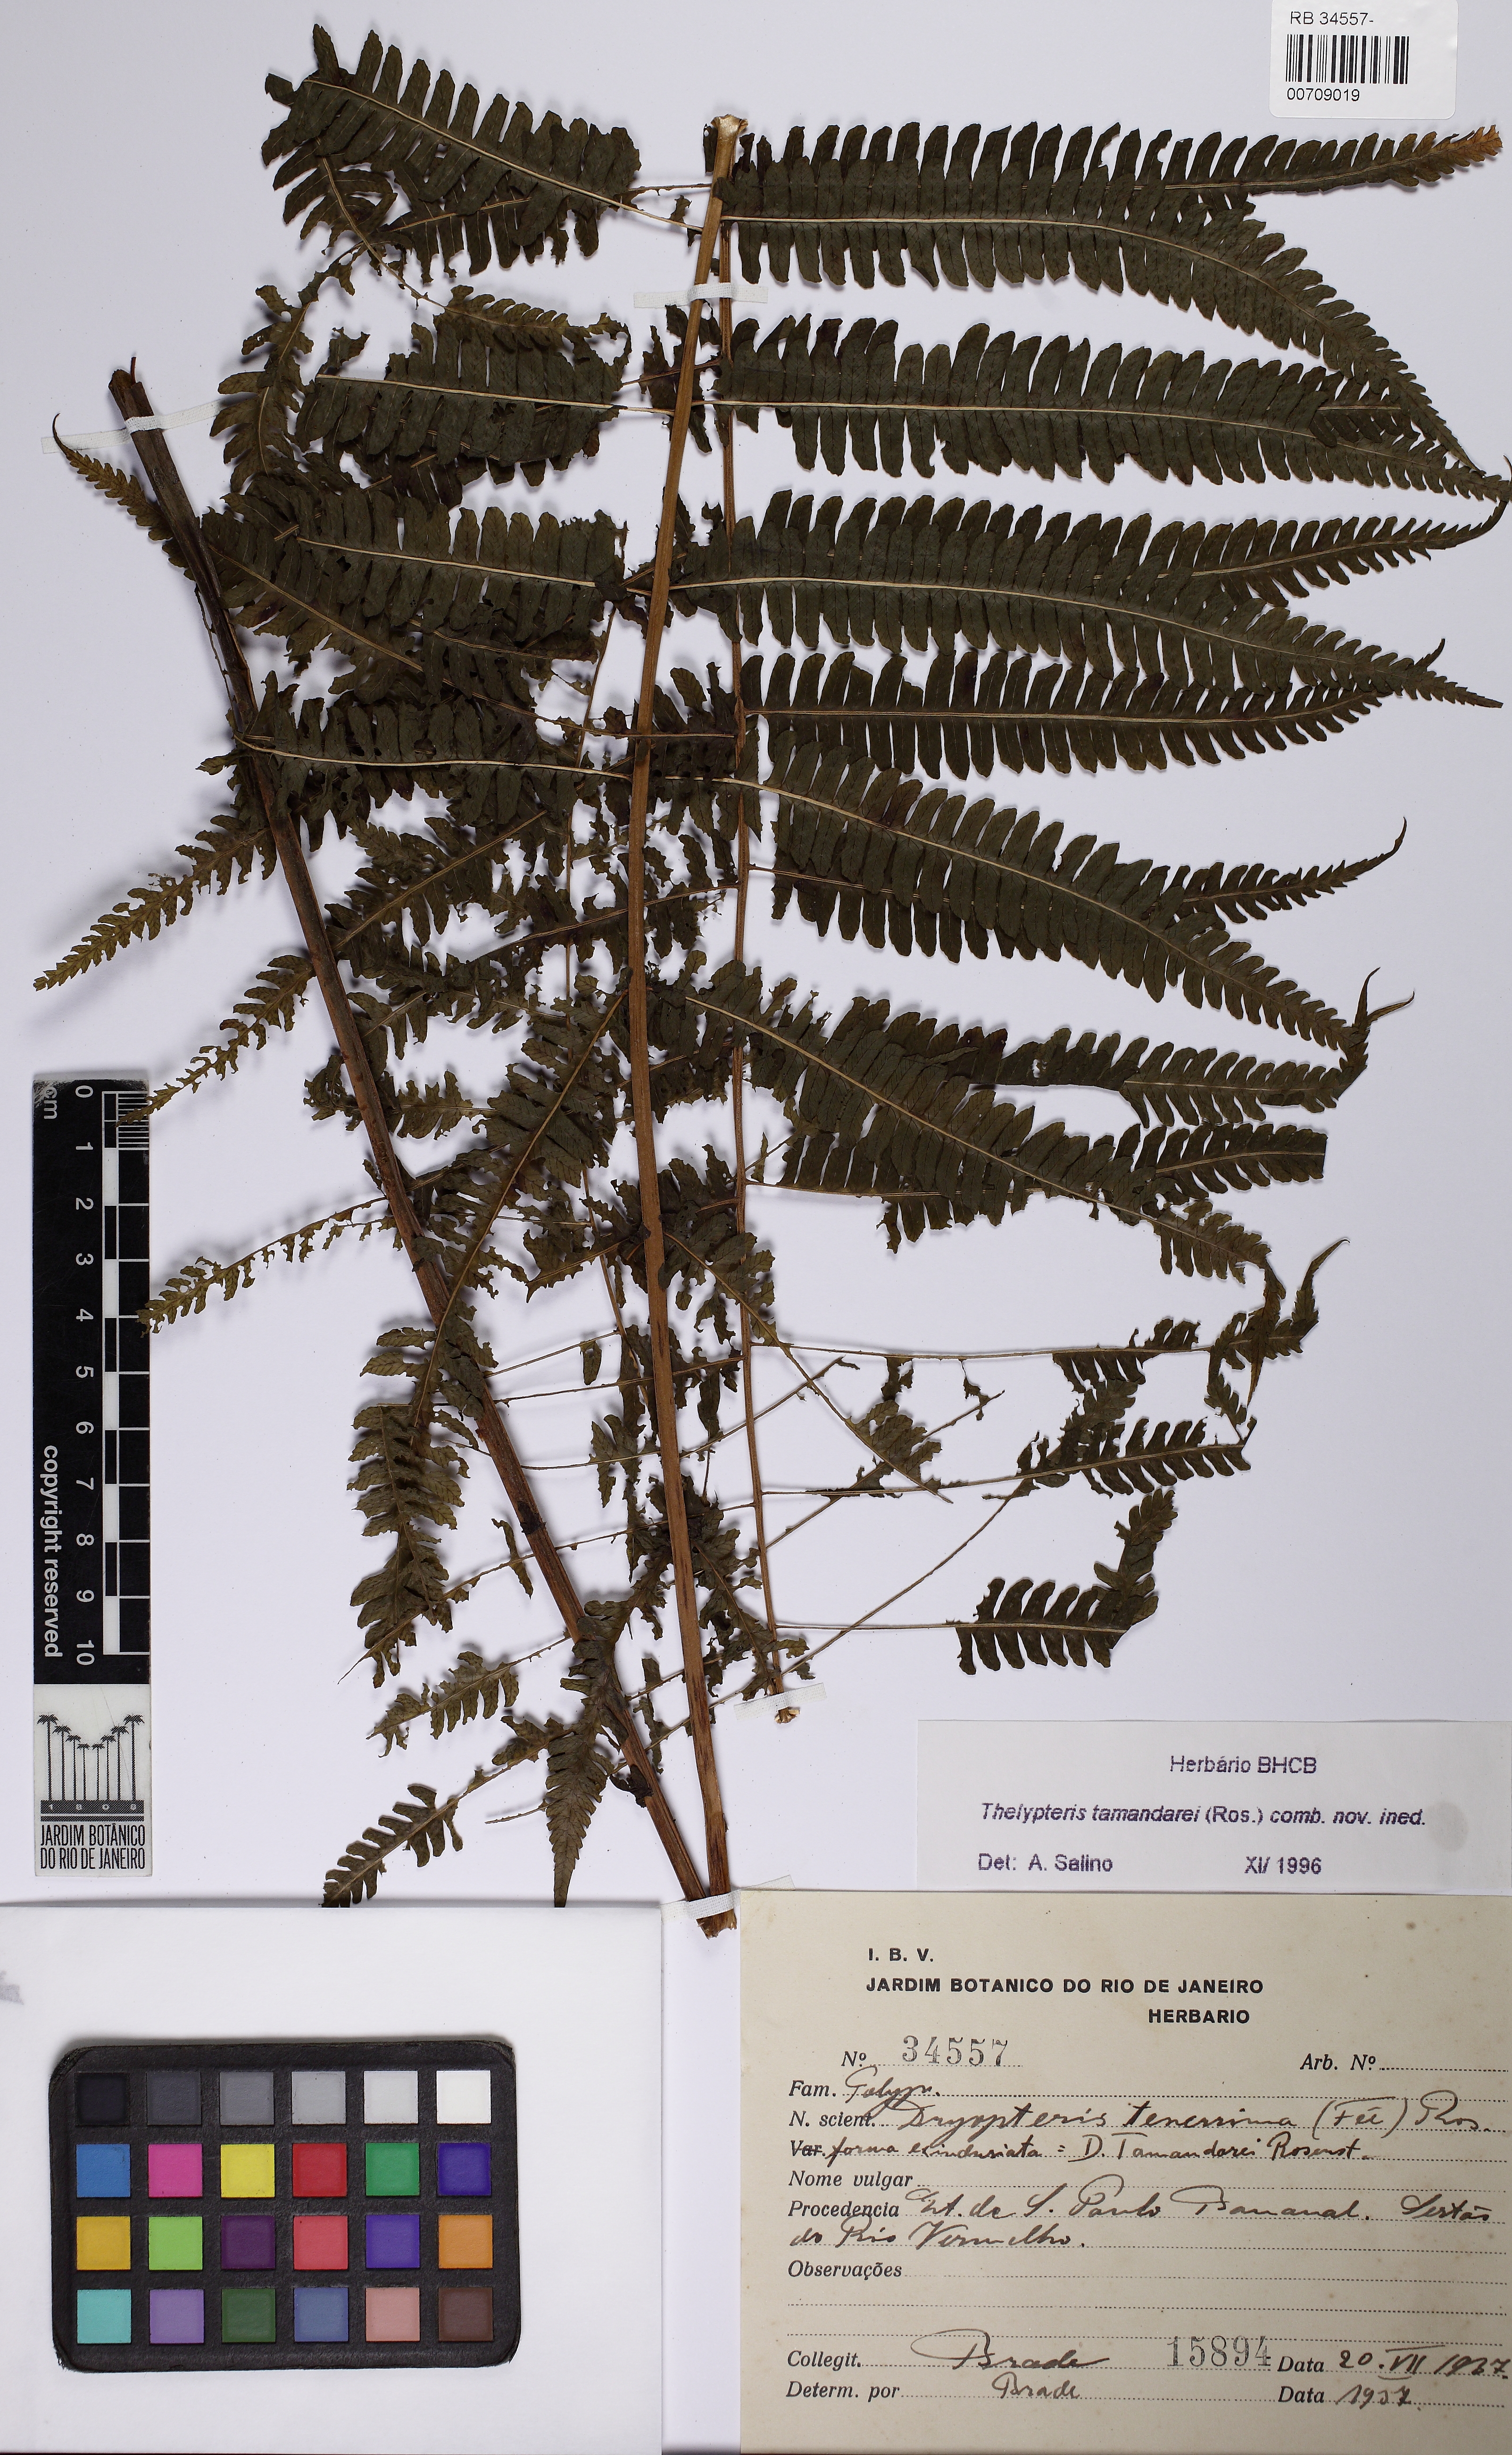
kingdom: Plantae
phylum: Tracheophyta
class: Polypodiopsida
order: Polypodiales
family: Thelypteridaceae
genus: Amauropelta
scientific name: Amauropelta tamandarei
